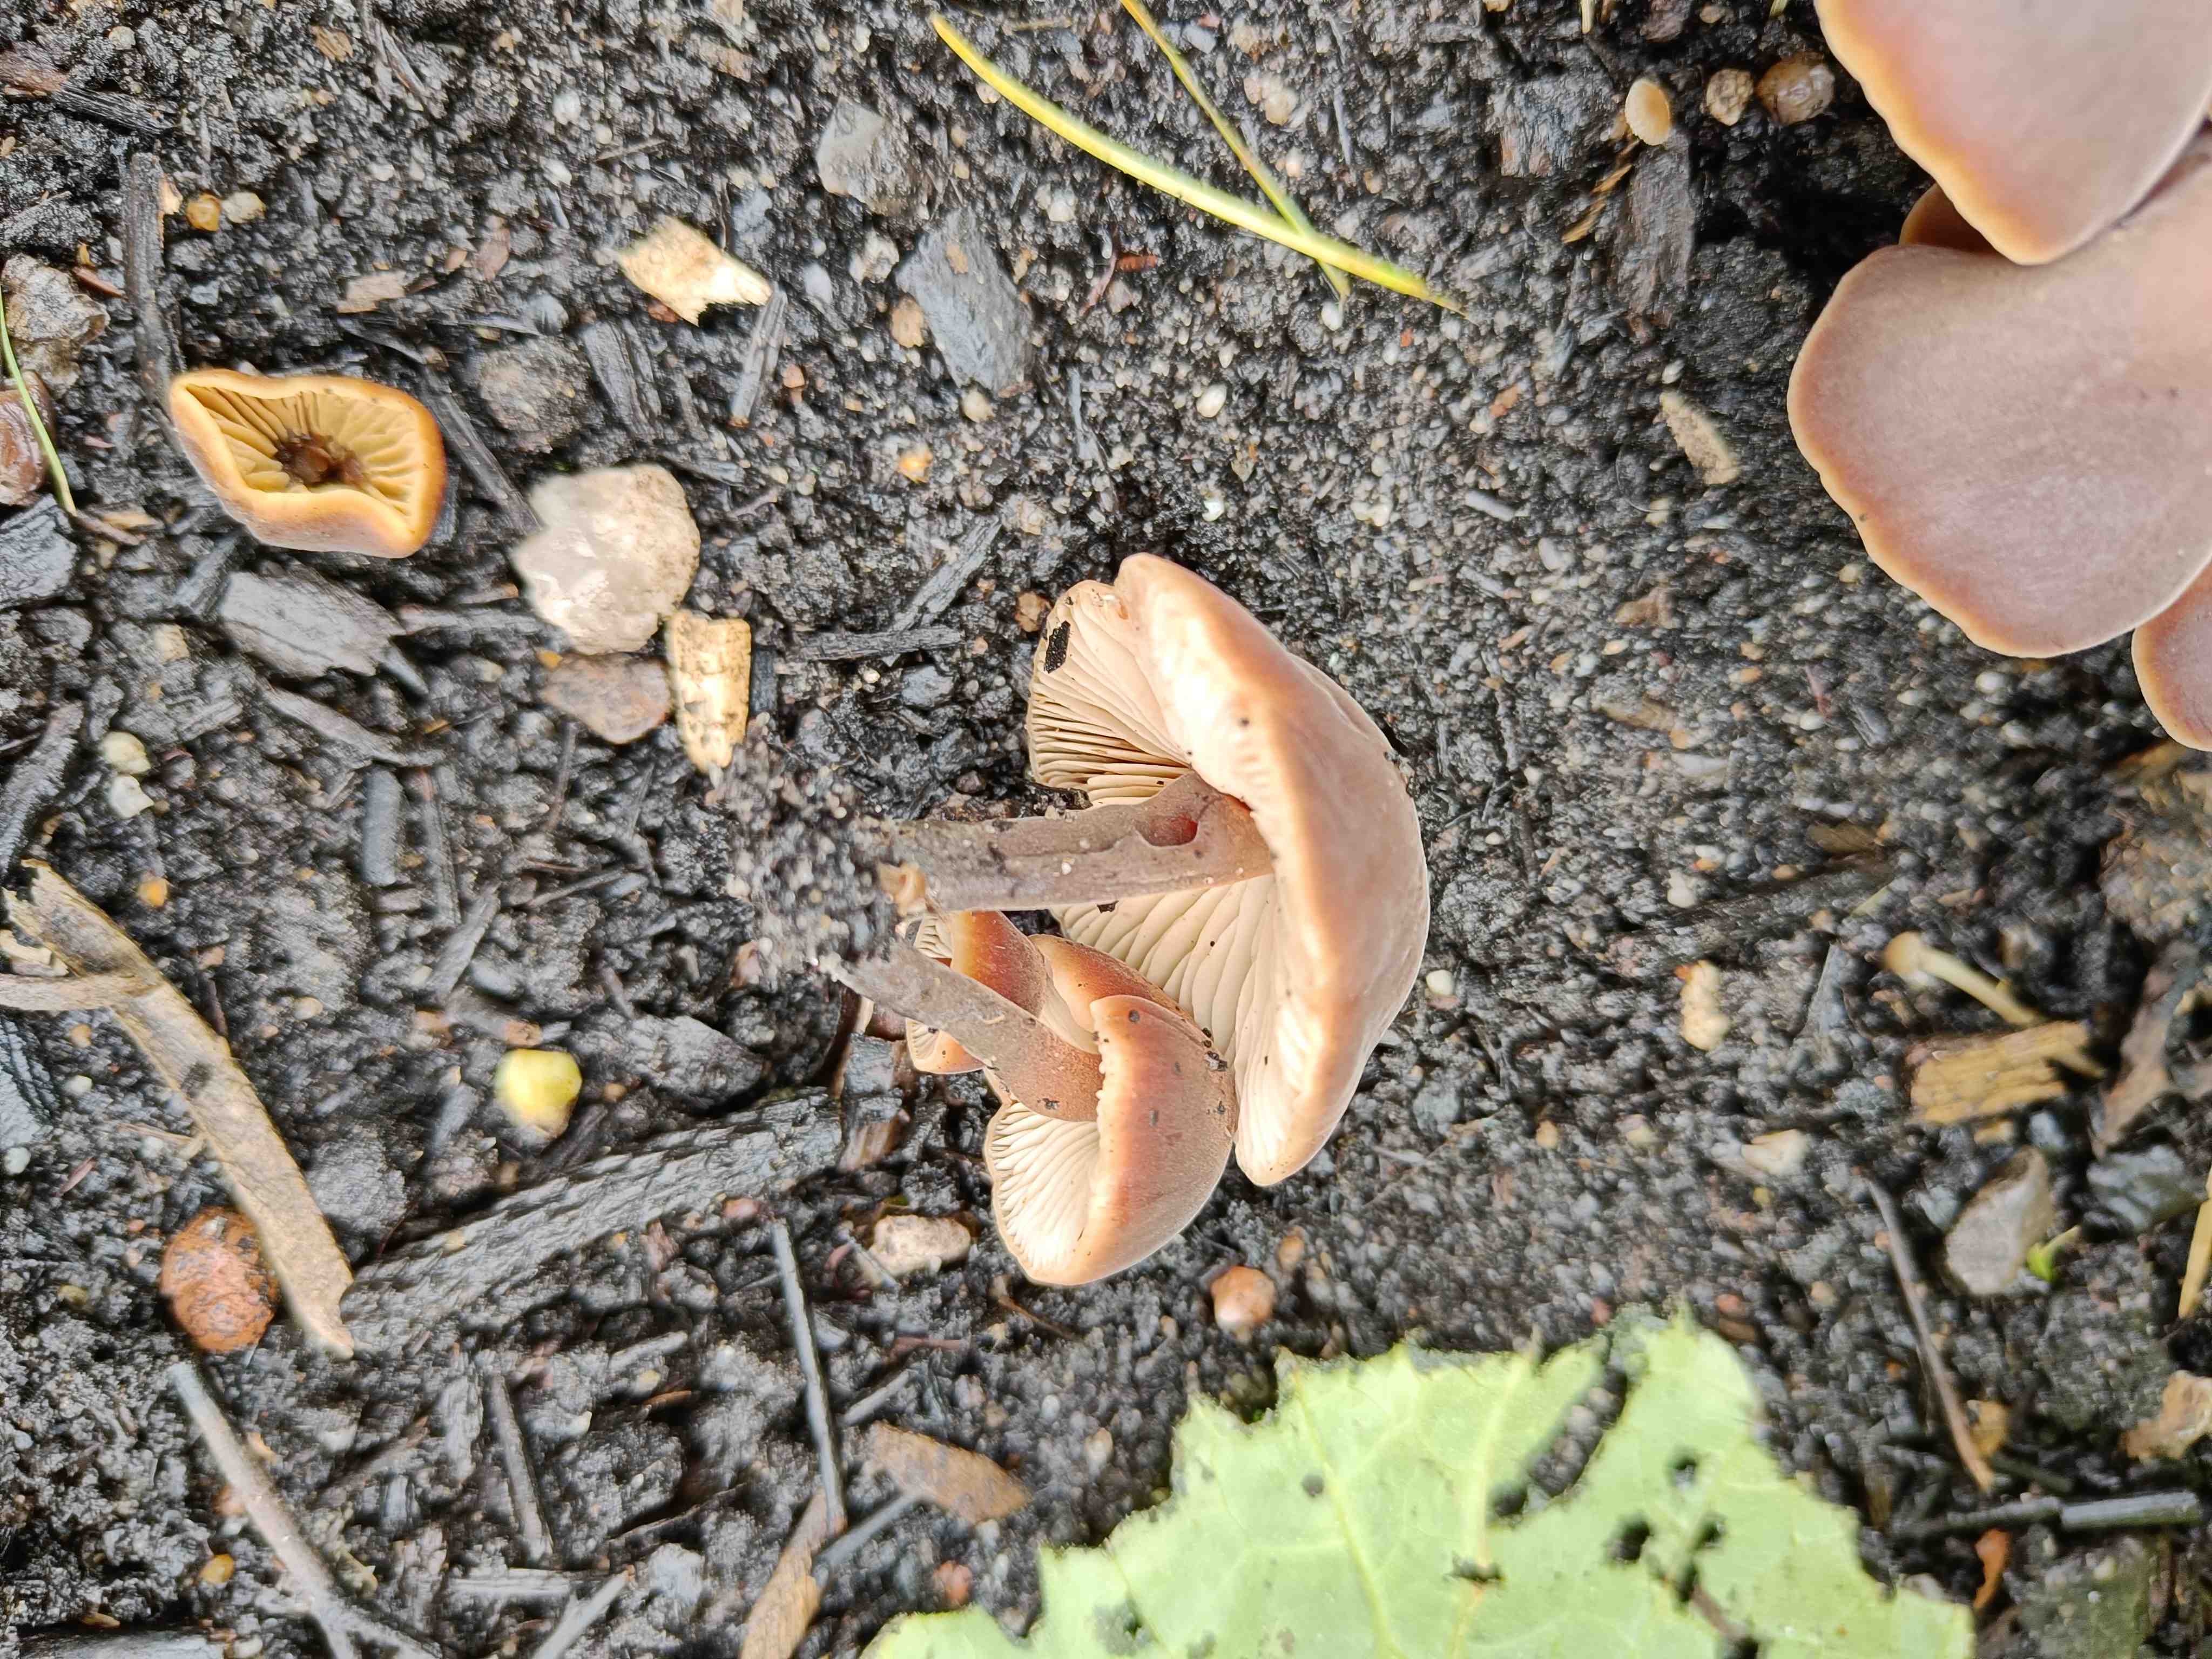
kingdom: Fungi
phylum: Basidiomycota
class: Agaricomycetes
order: Agaricales
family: Macrocystidiaceae
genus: Macrocystidia
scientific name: Macrocystidia cucumis
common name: agurkehat
